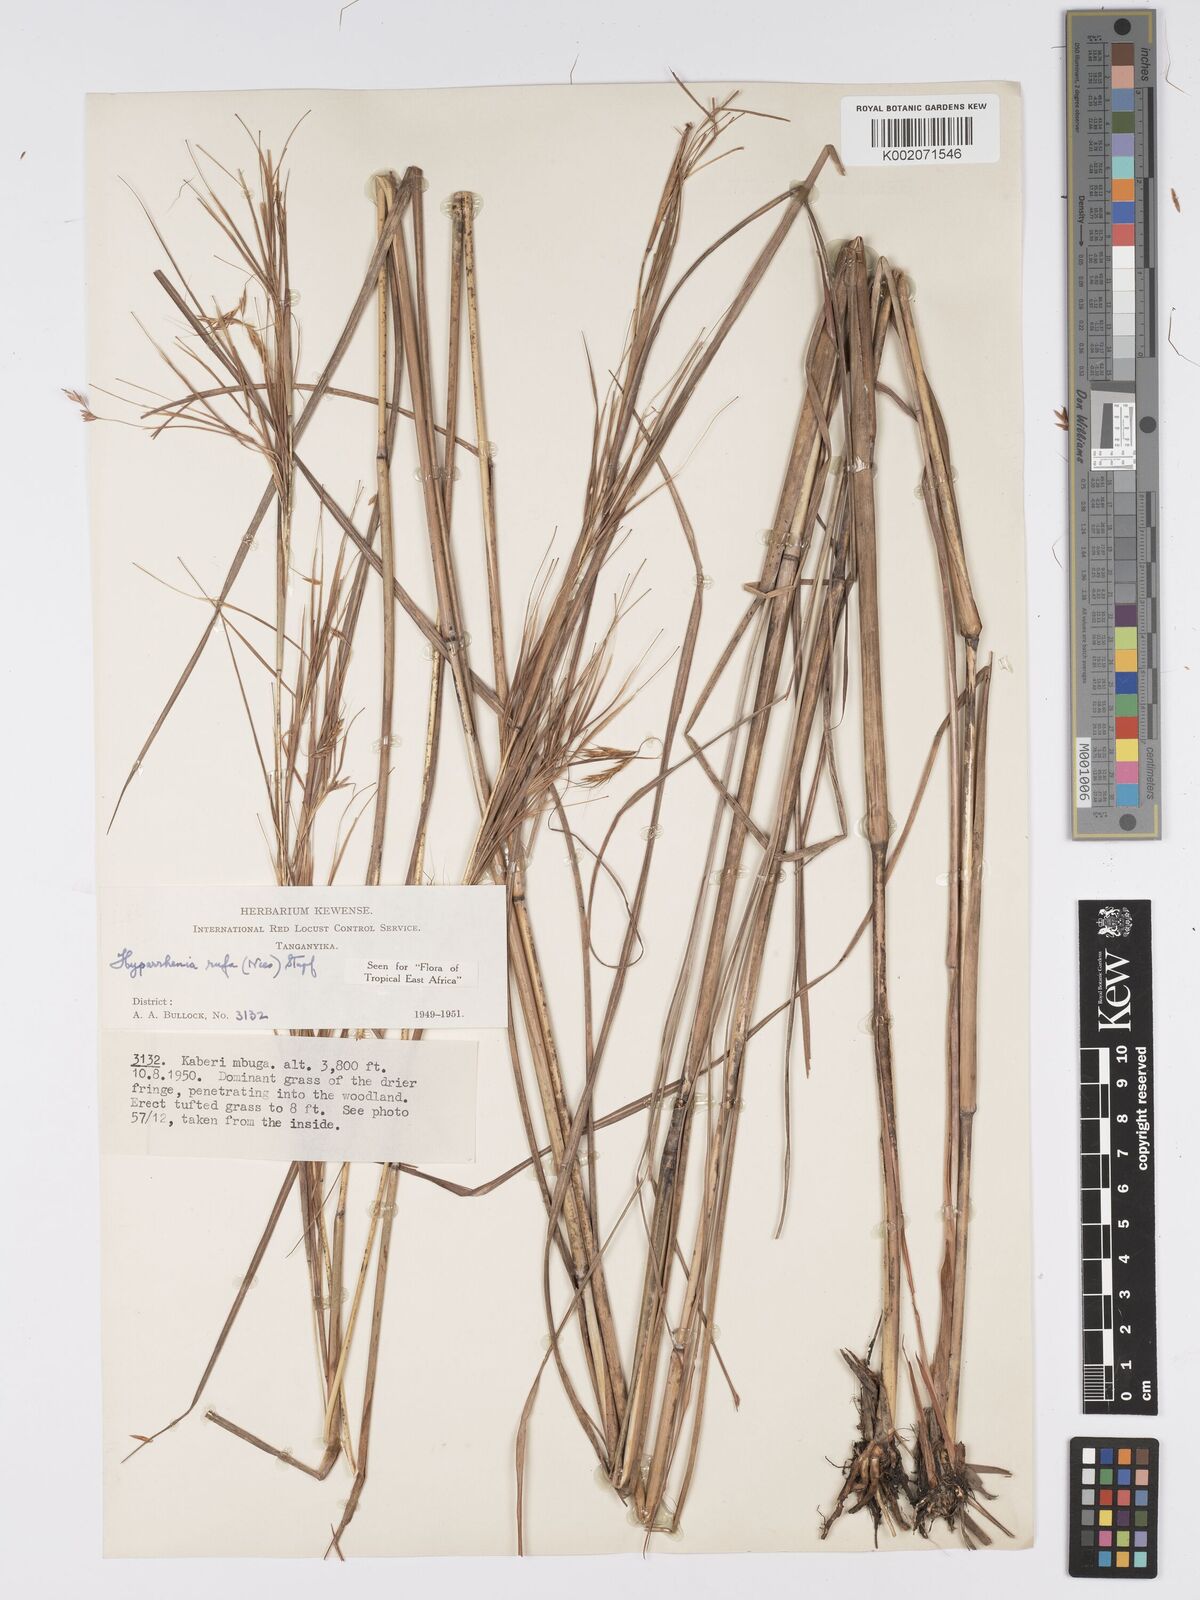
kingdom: Plantae
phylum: Tracheophyta
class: Liliopsida
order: Poales
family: Poaceae
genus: Hyparrhenia
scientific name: Hyparrhenia rufa
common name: Jaraguagrass
